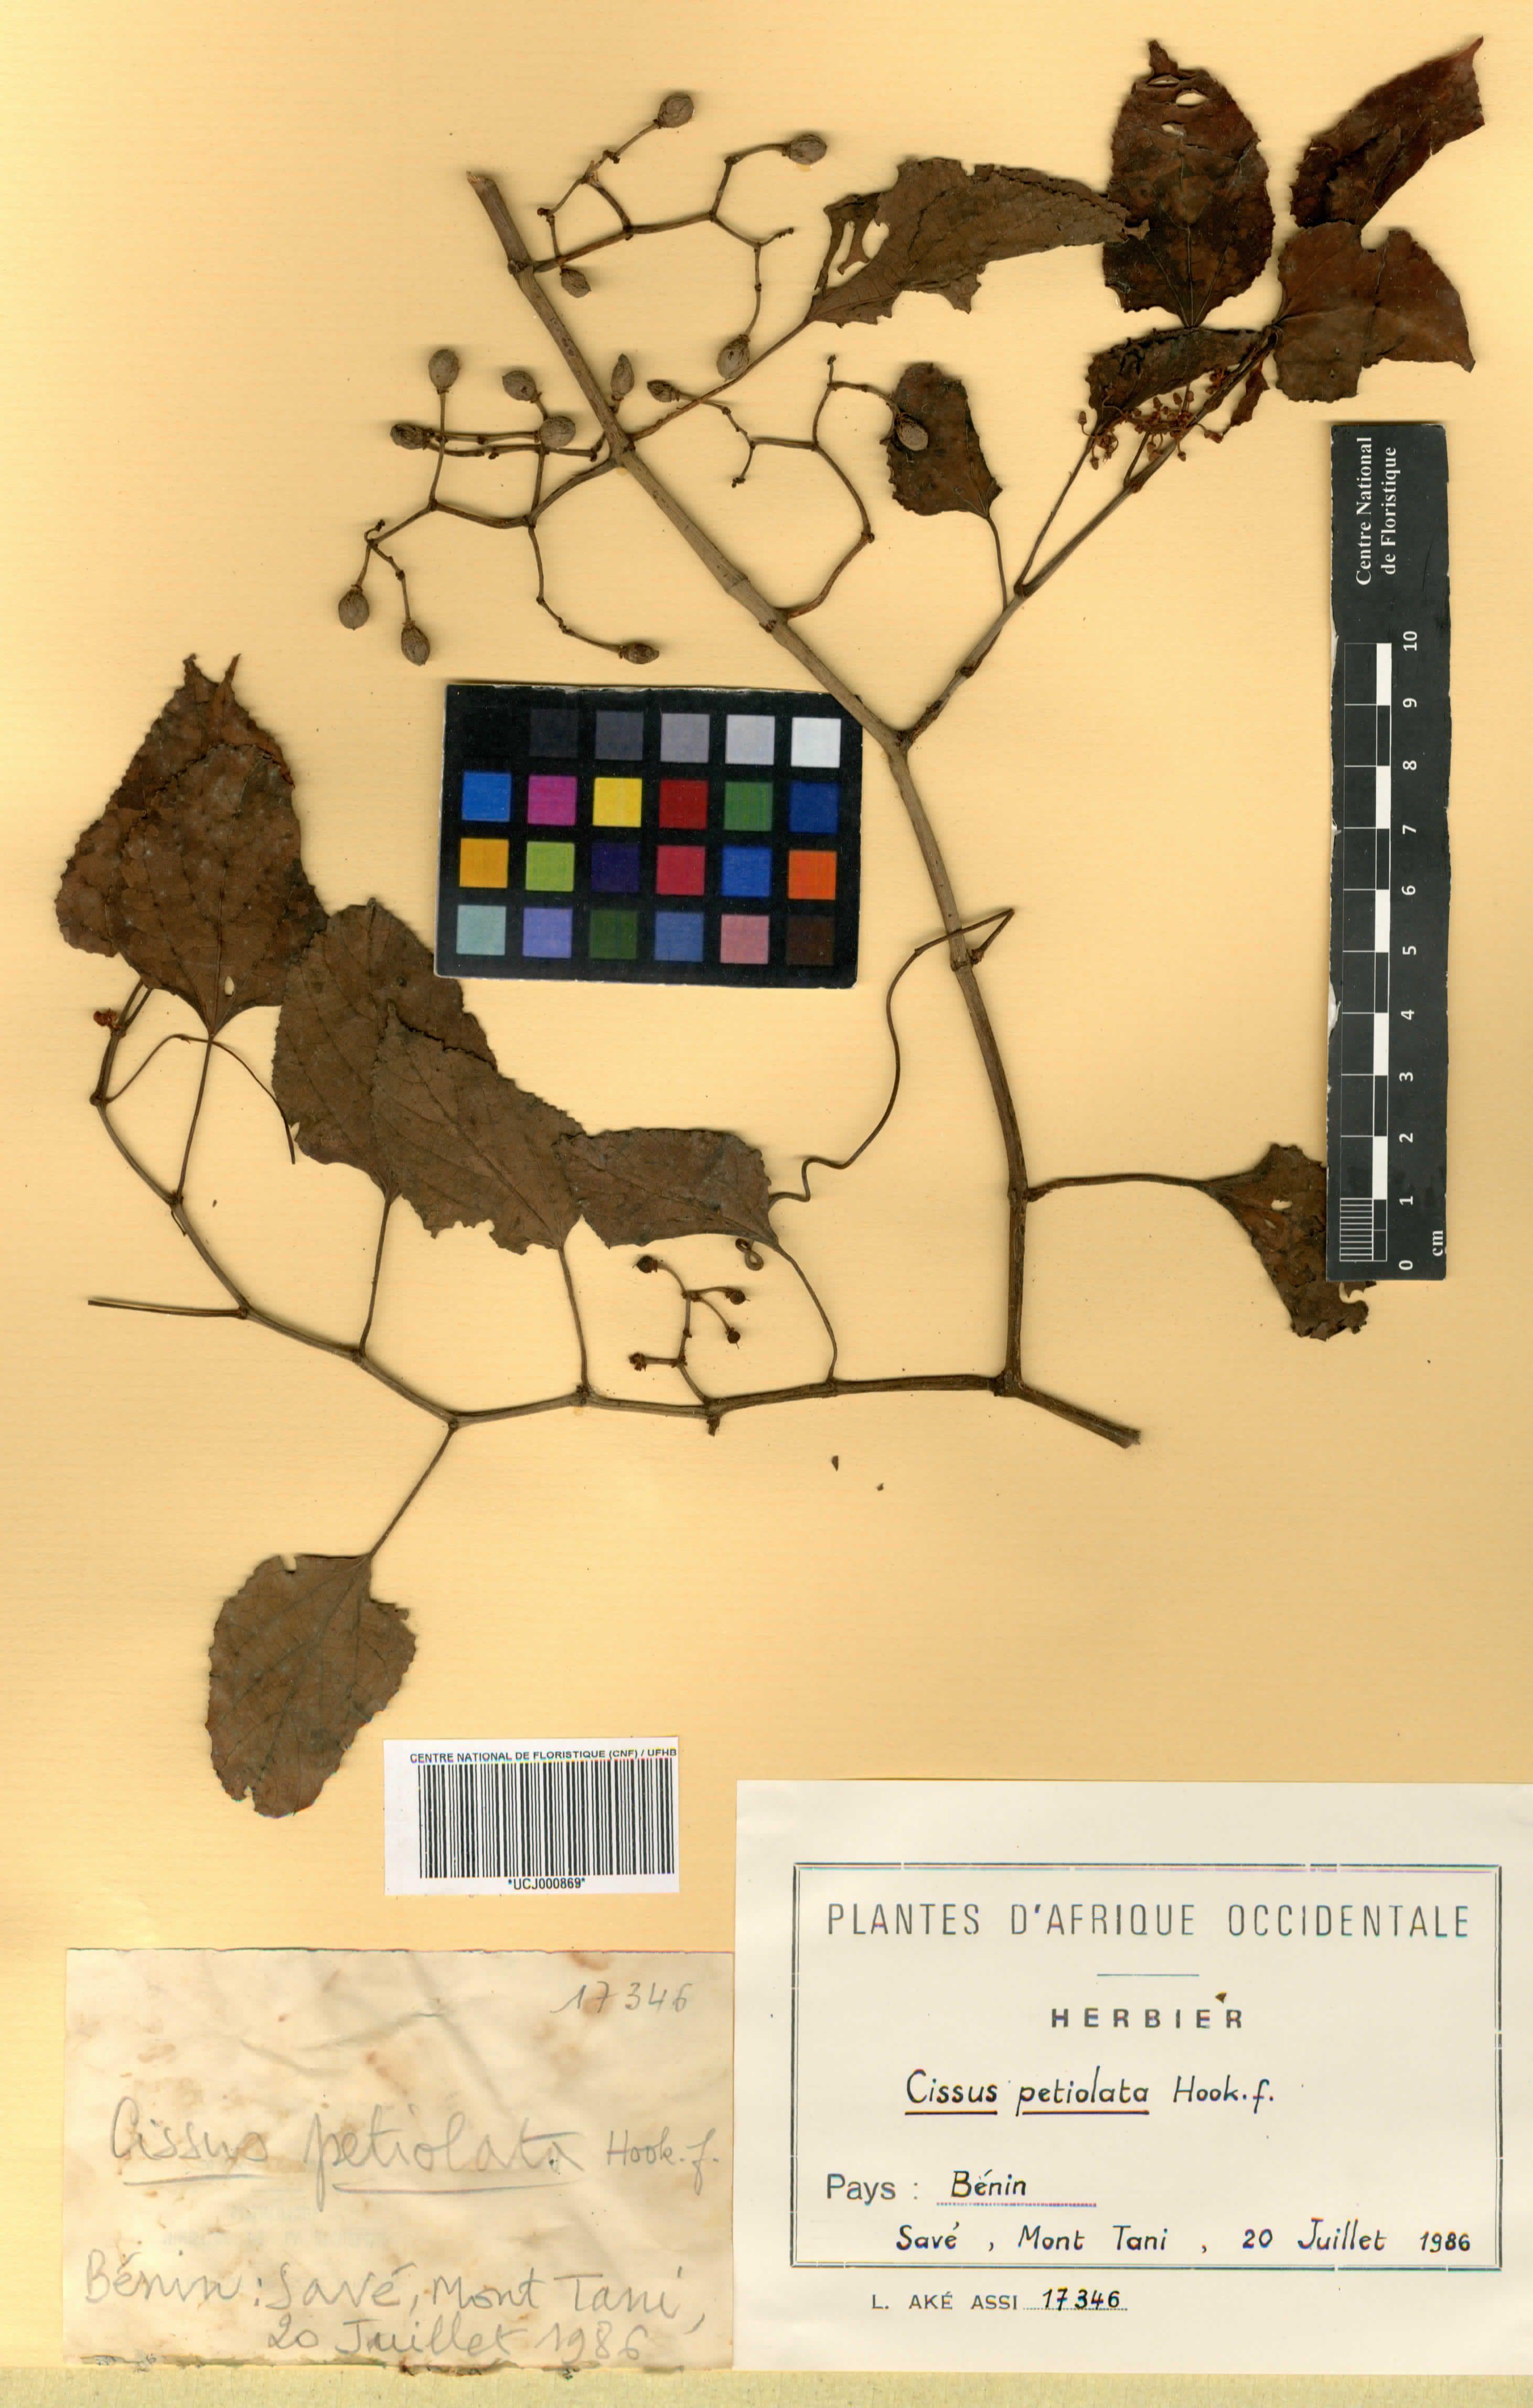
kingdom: Plantae
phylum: Tracheophyta
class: Magnoliopsida
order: Vitales
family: Vitaceae
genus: Cissus
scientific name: Cissus petiolata
